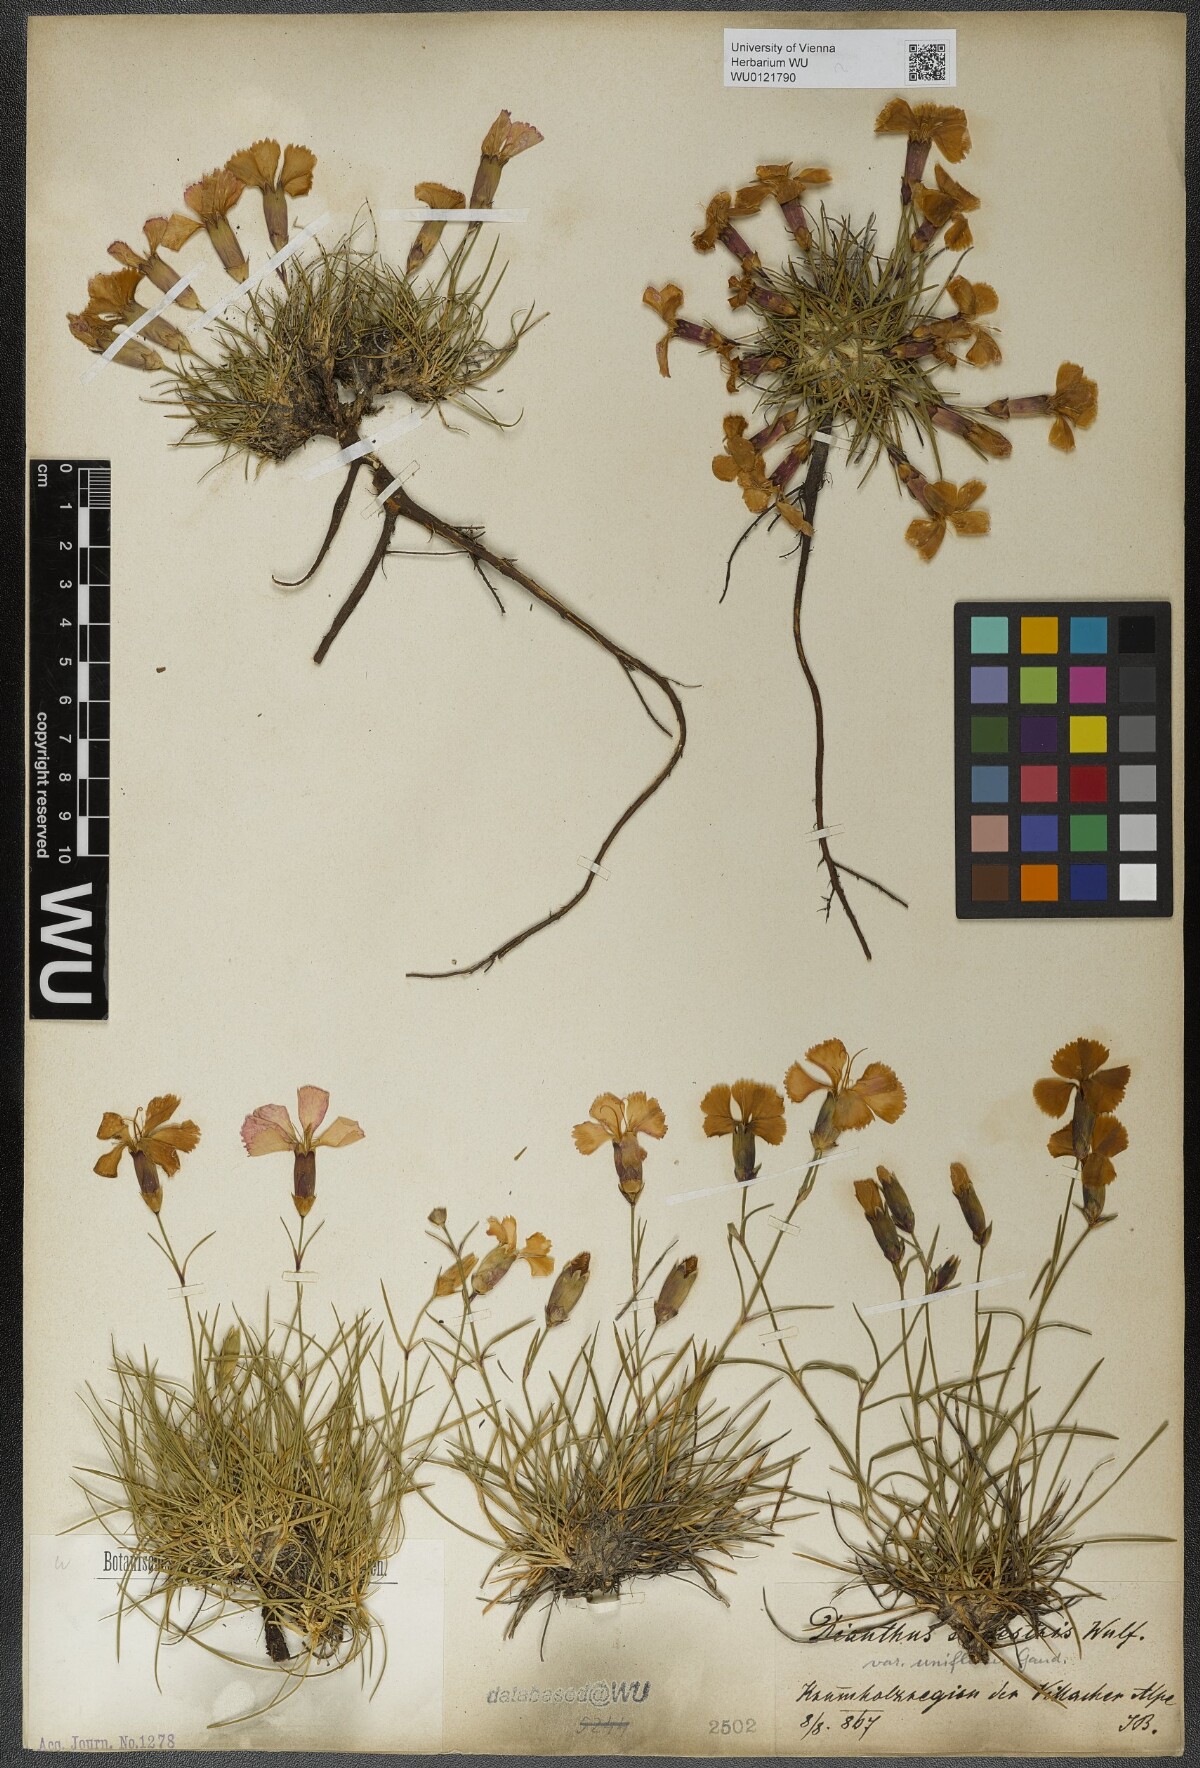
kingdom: Plantae
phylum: Tracheophyta
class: Magnoliopsida
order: Caryophyllales
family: Caryophyllaceae
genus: Dianthus
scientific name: Dianthus sylvestris
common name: Wood pink
